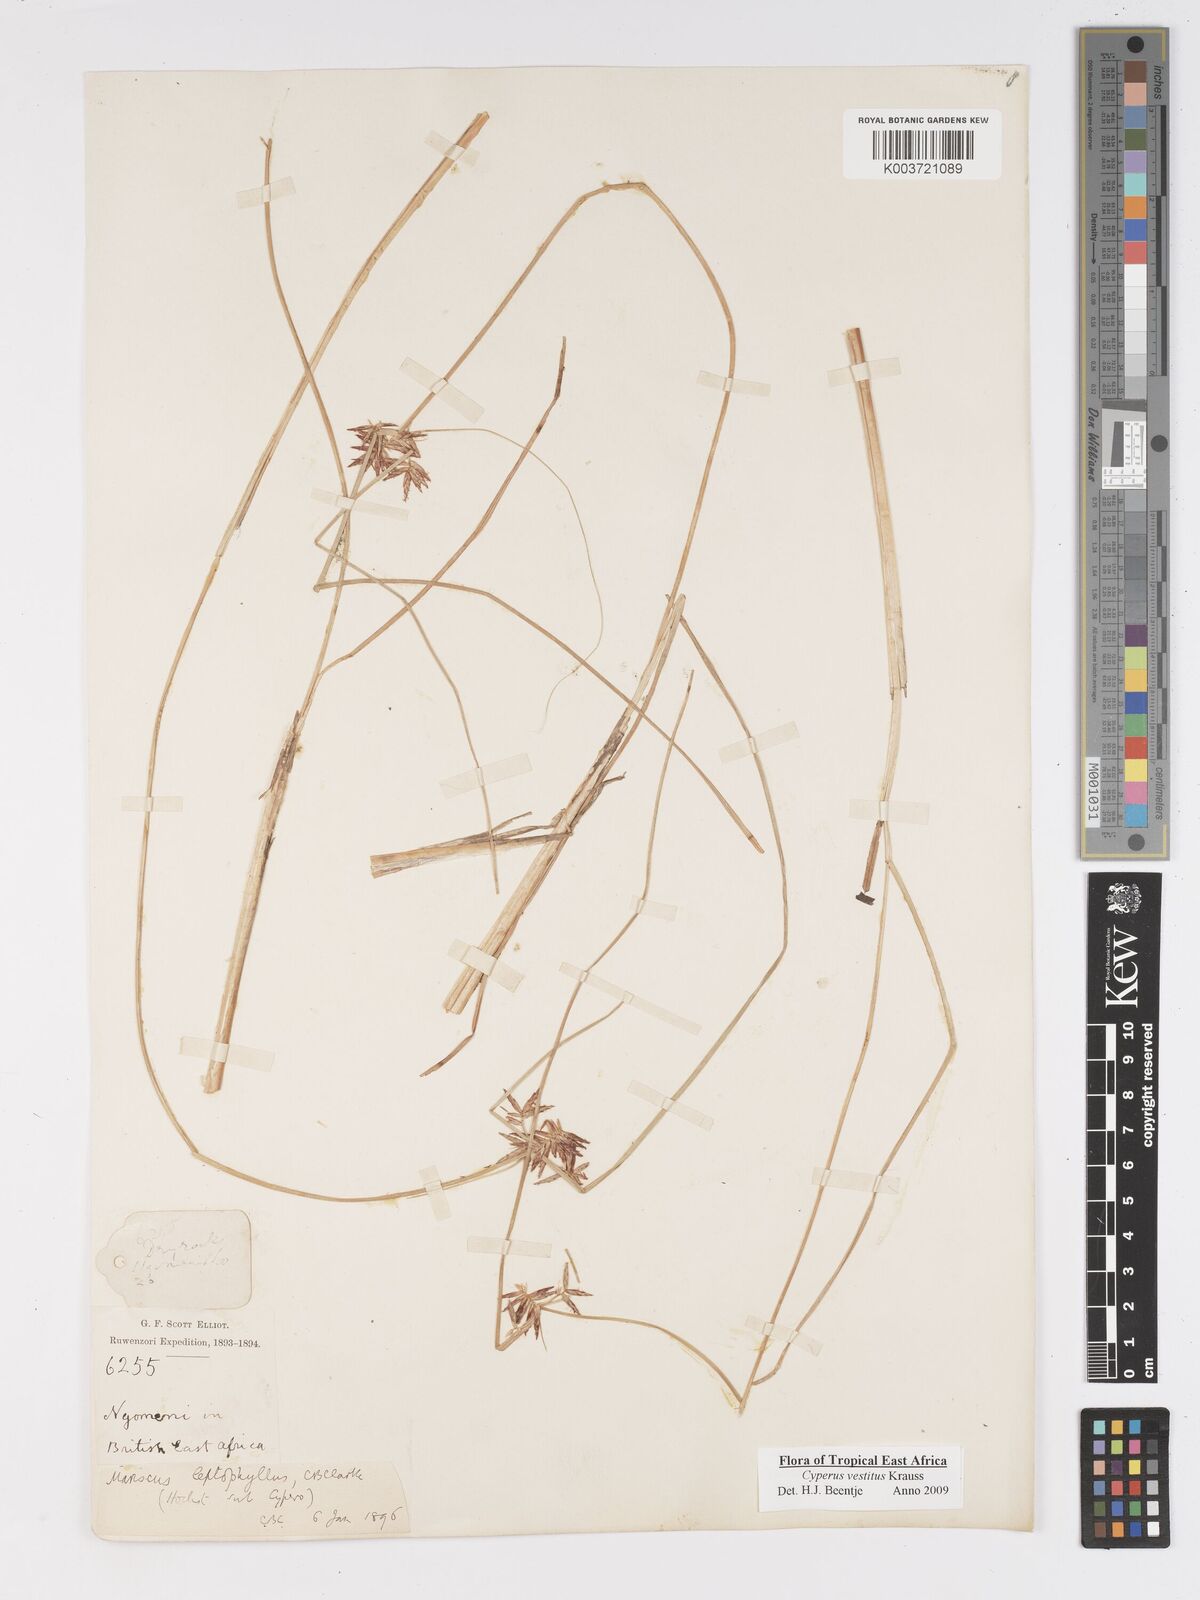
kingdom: Plantae
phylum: Tracheophyta
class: Liliopsida
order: Poales
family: Cyperaceae
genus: Cyperus
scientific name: Cyperus vestitus
